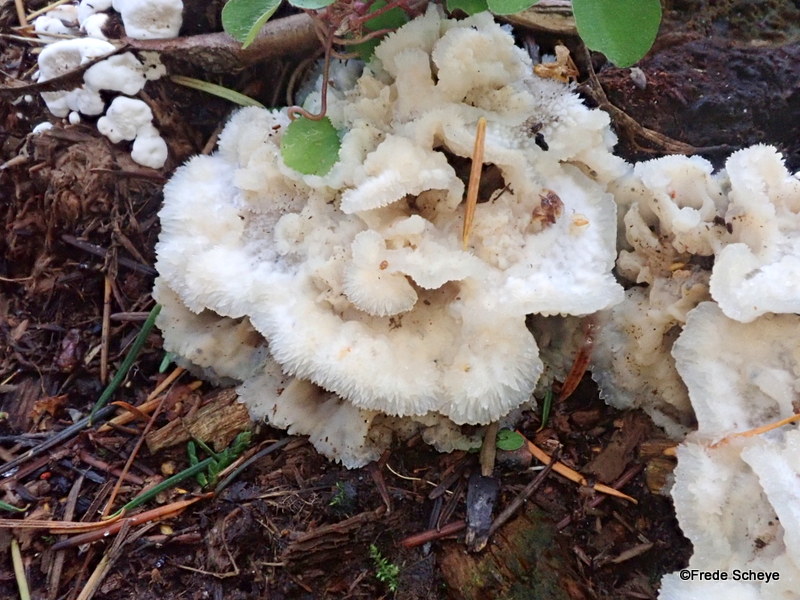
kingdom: Fungi
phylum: Basidiomycota
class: Agaricomycetes
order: Polyporales
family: Meruliaceae
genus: Phlebia
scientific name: Phlebia tremellosa
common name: bævrende åresvamp
